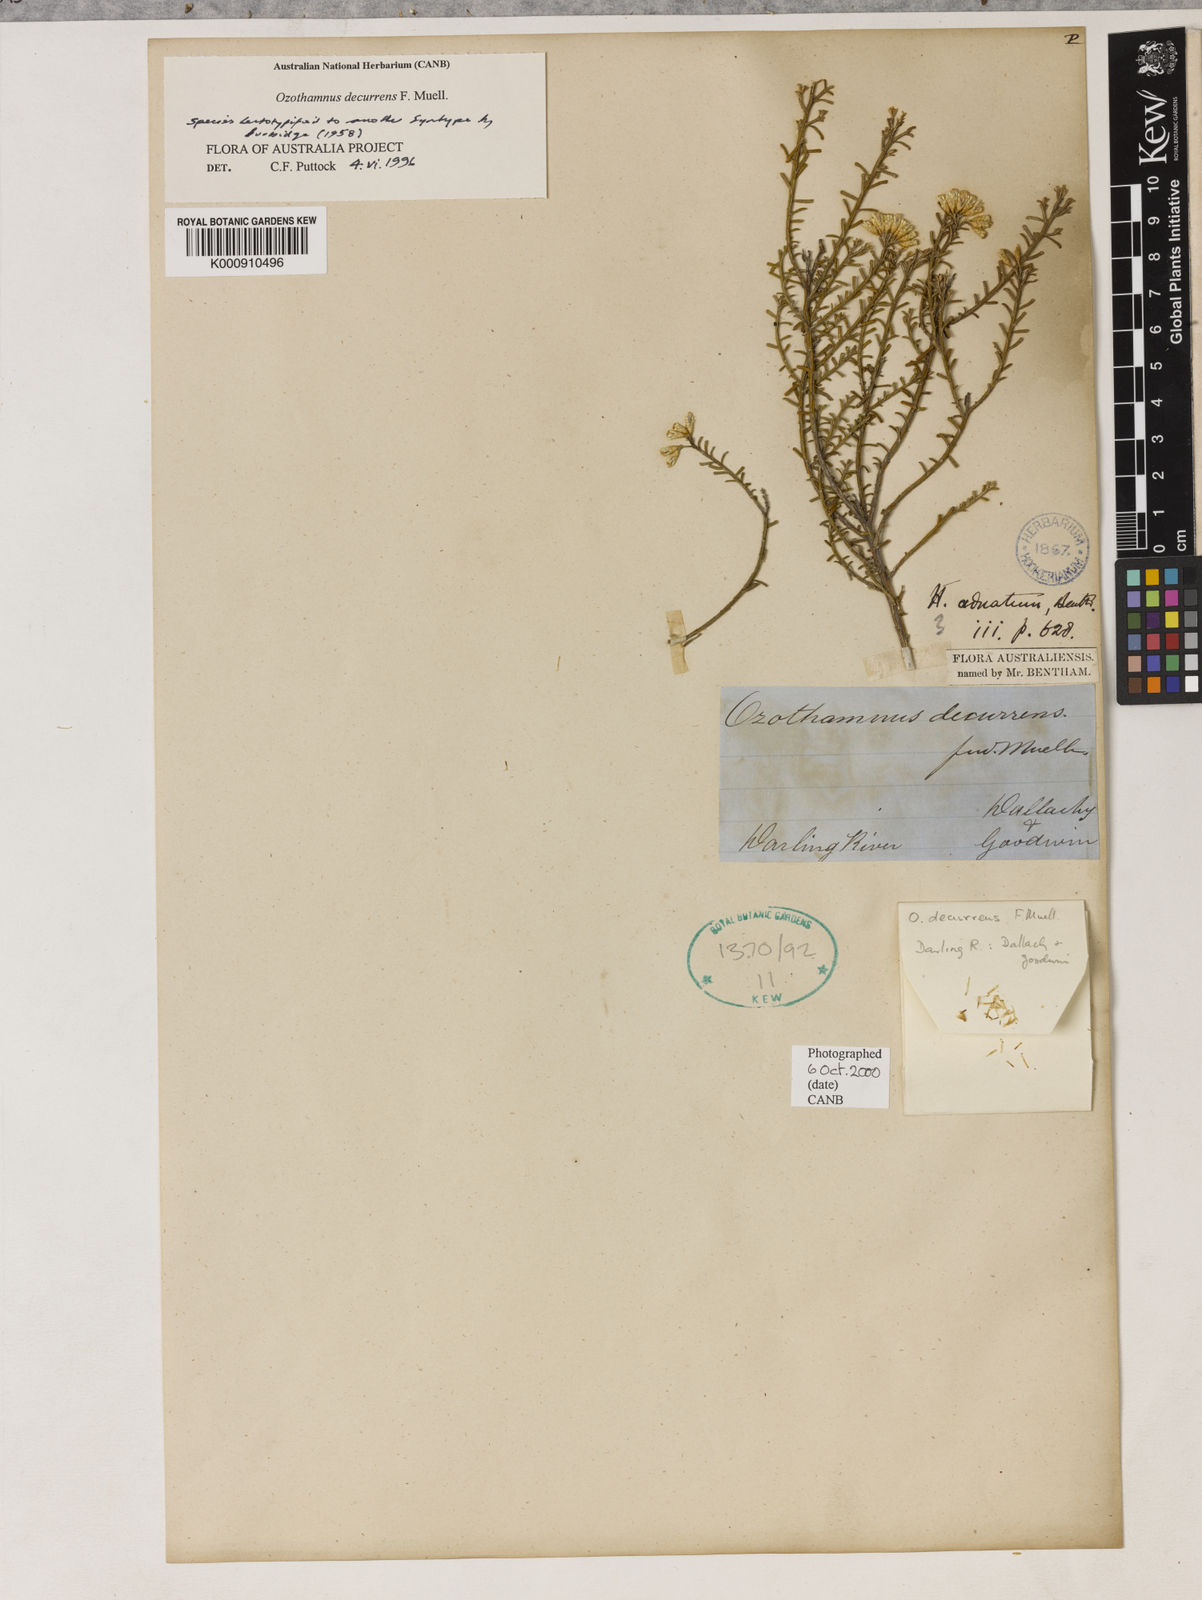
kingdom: Plantae
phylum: Tracheophyta
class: Magnoliopsida
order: Asterales
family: Asteraceae
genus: Ozothamnus
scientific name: Ozothamnus catadromus
